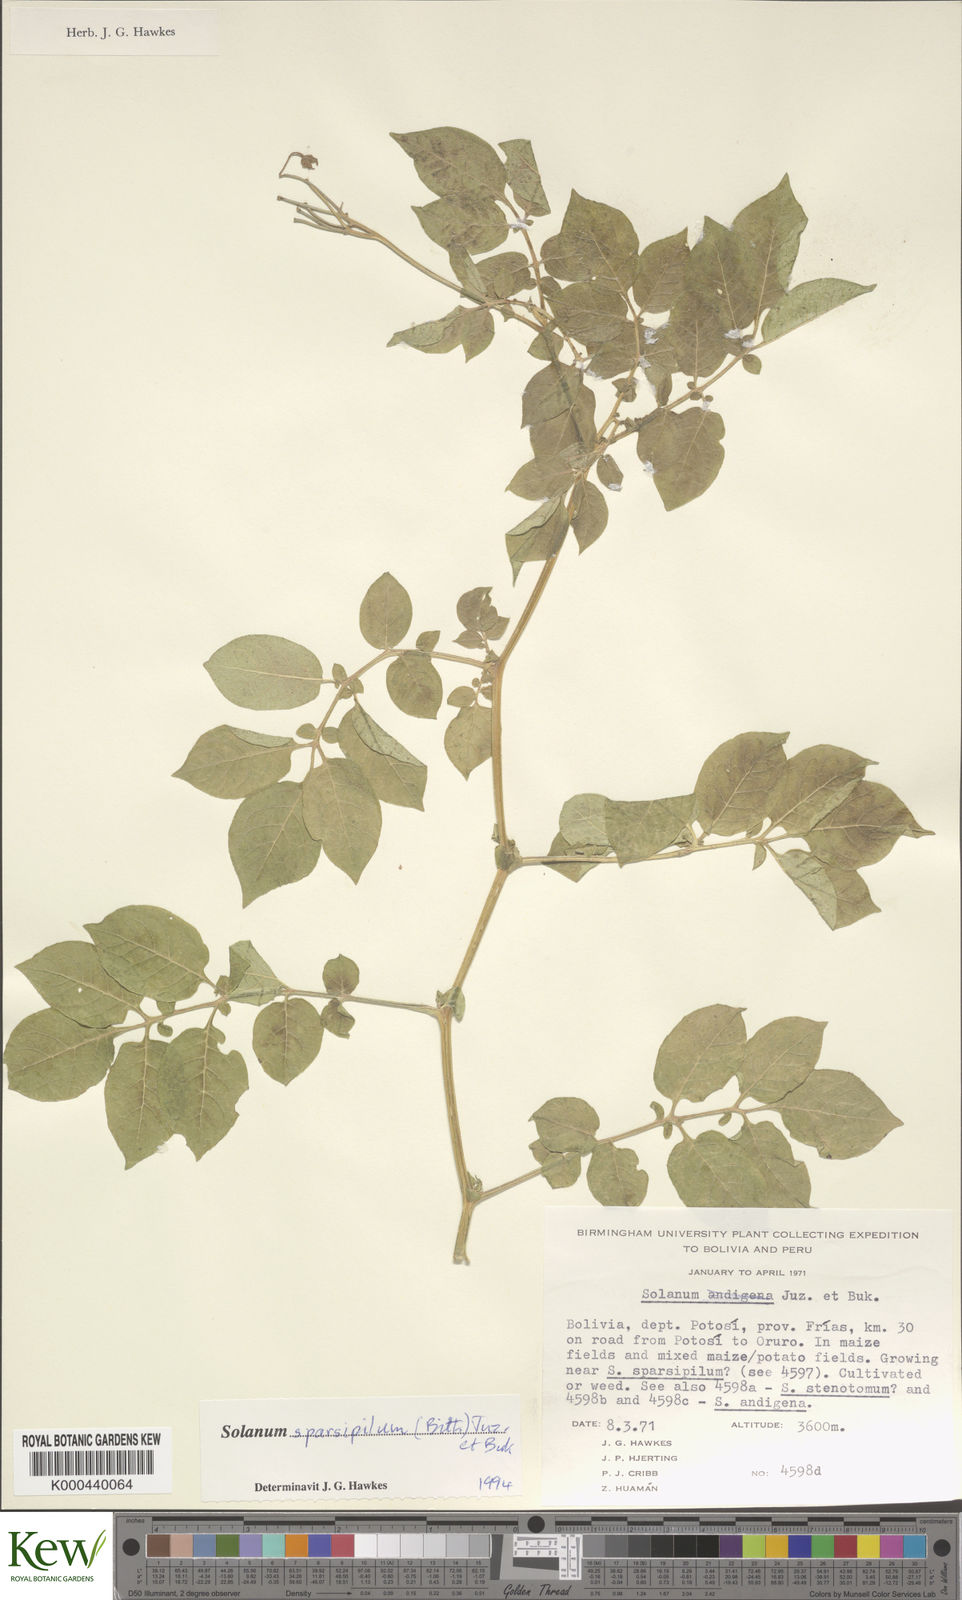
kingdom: Plantae
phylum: Tracheophyta
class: Magnoliopsida
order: Solanales
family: Solanaceae
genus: Solanum
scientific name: Solanum brevicaule
